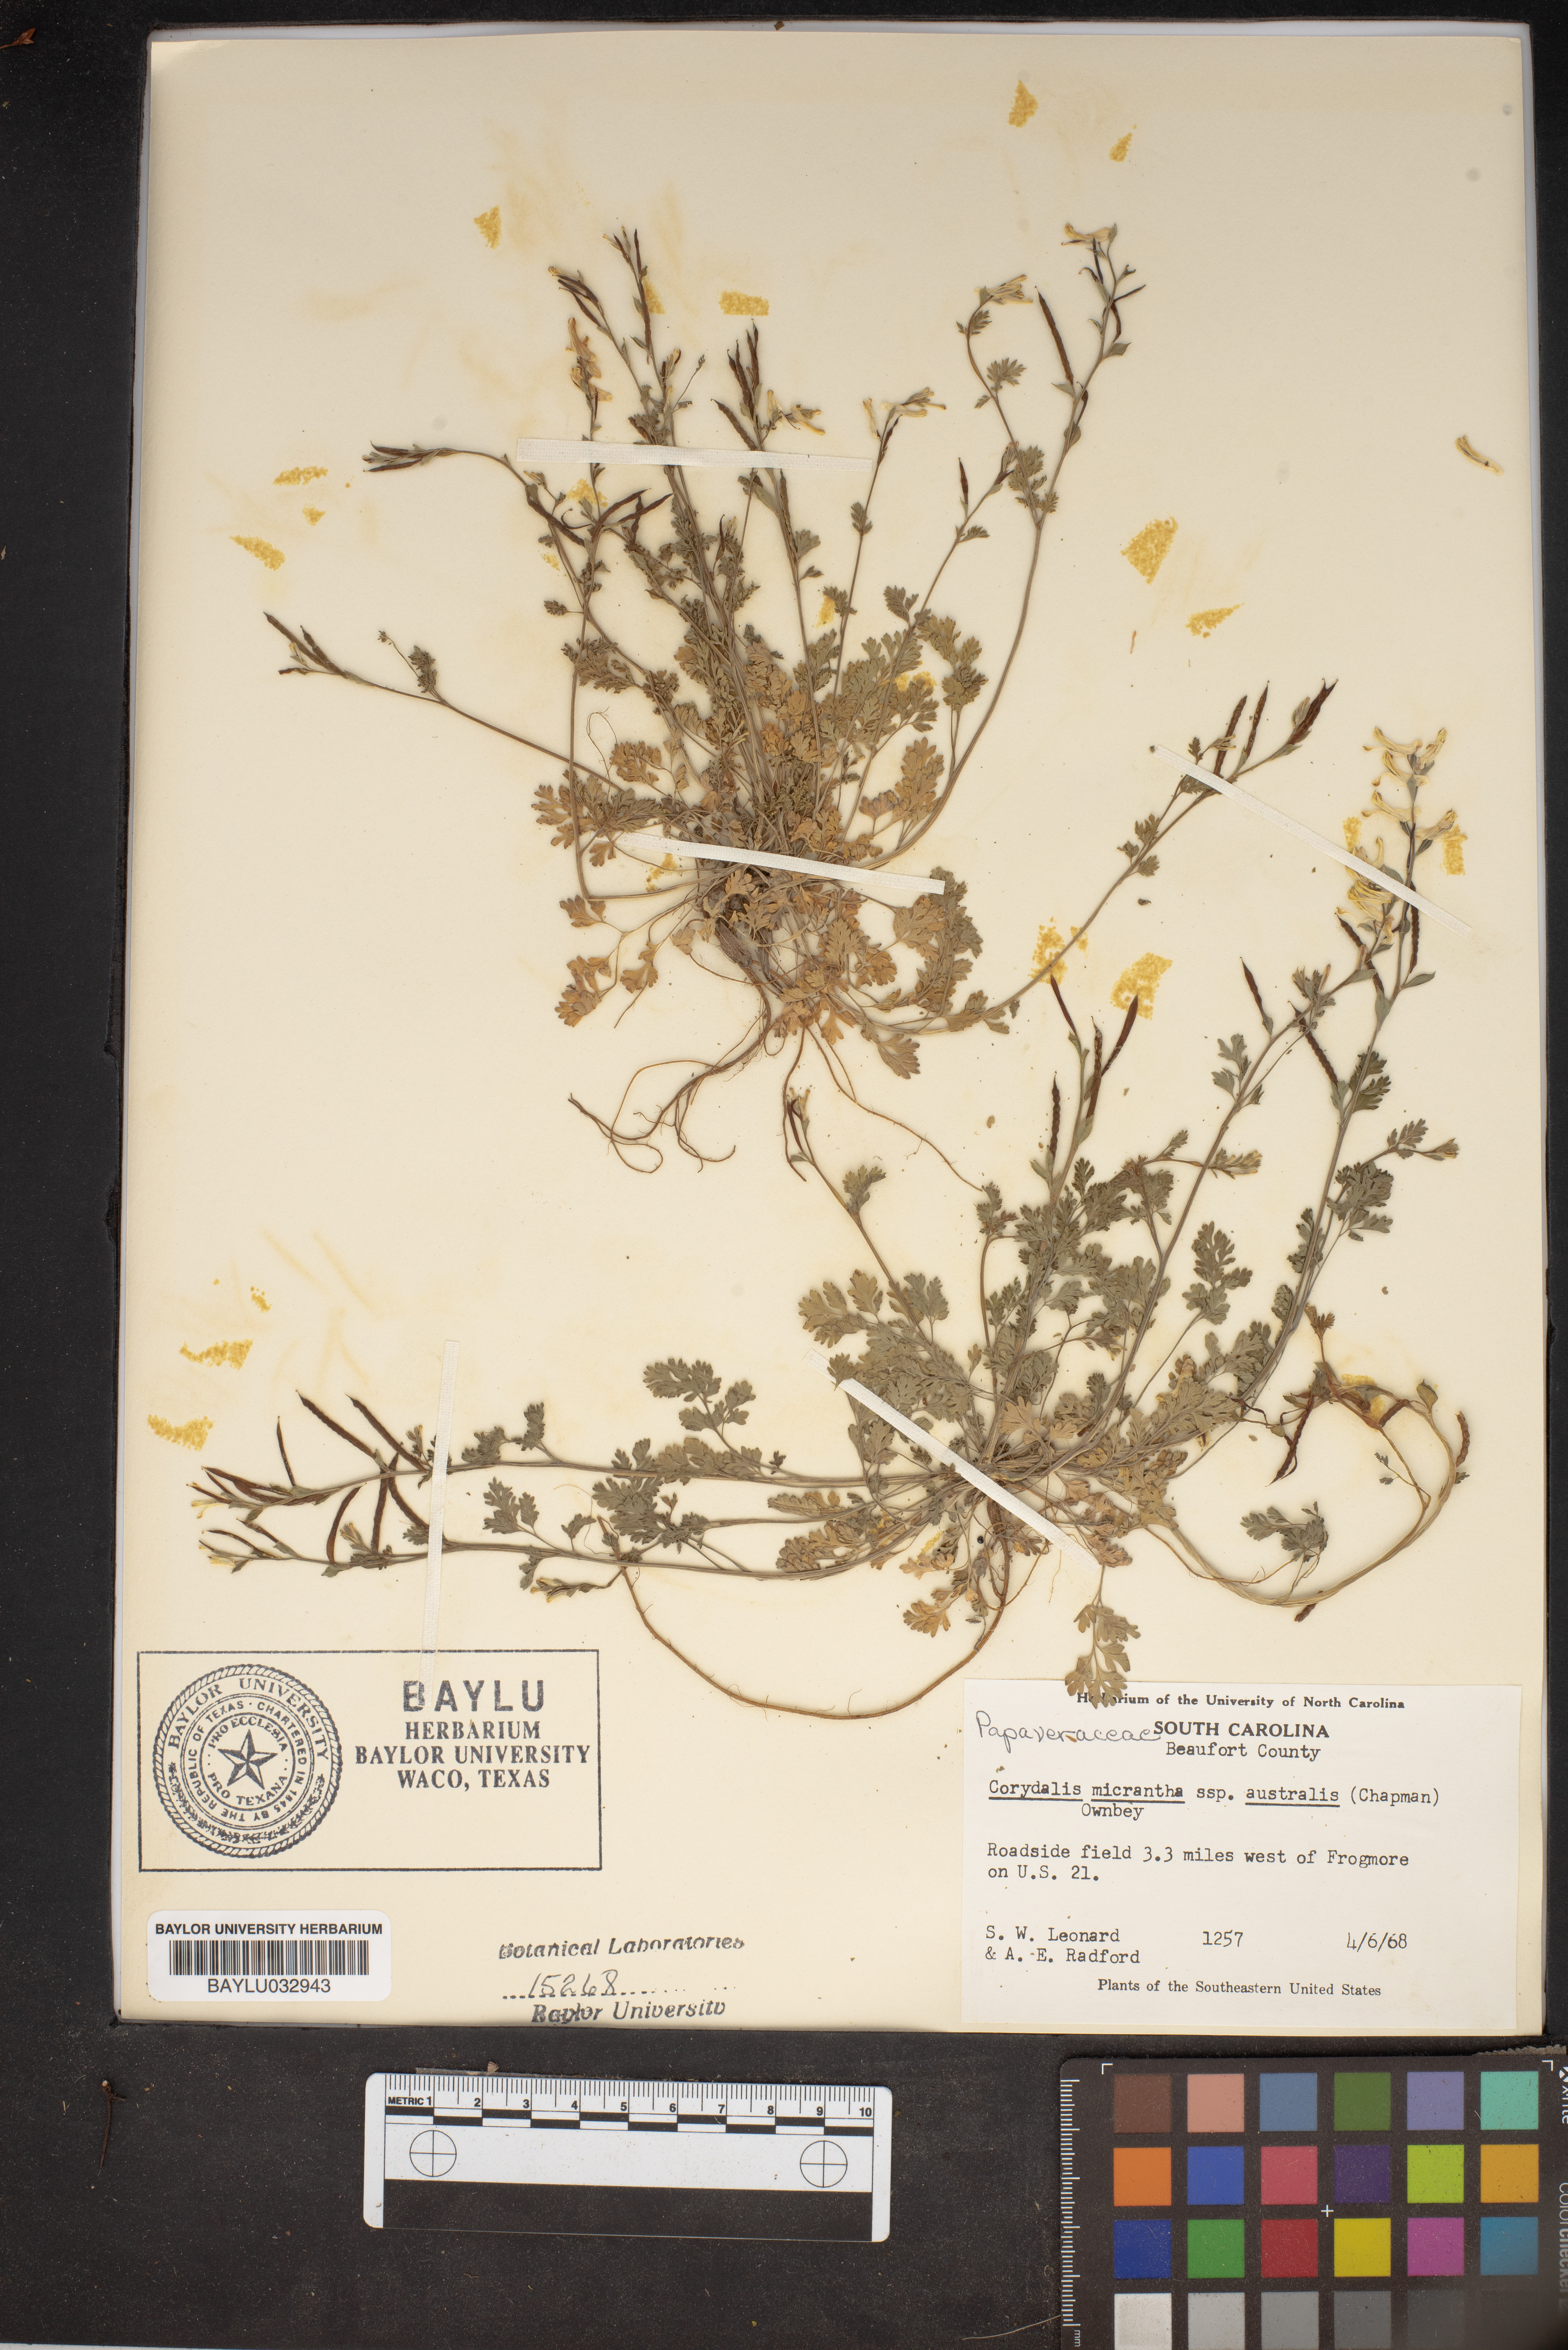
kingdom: Plantae
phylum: Tracheophyta
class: Magnoliopsida
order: Ranunculales
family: Papaveraceae
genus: Corydalis
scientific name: Corydalis micrantha
